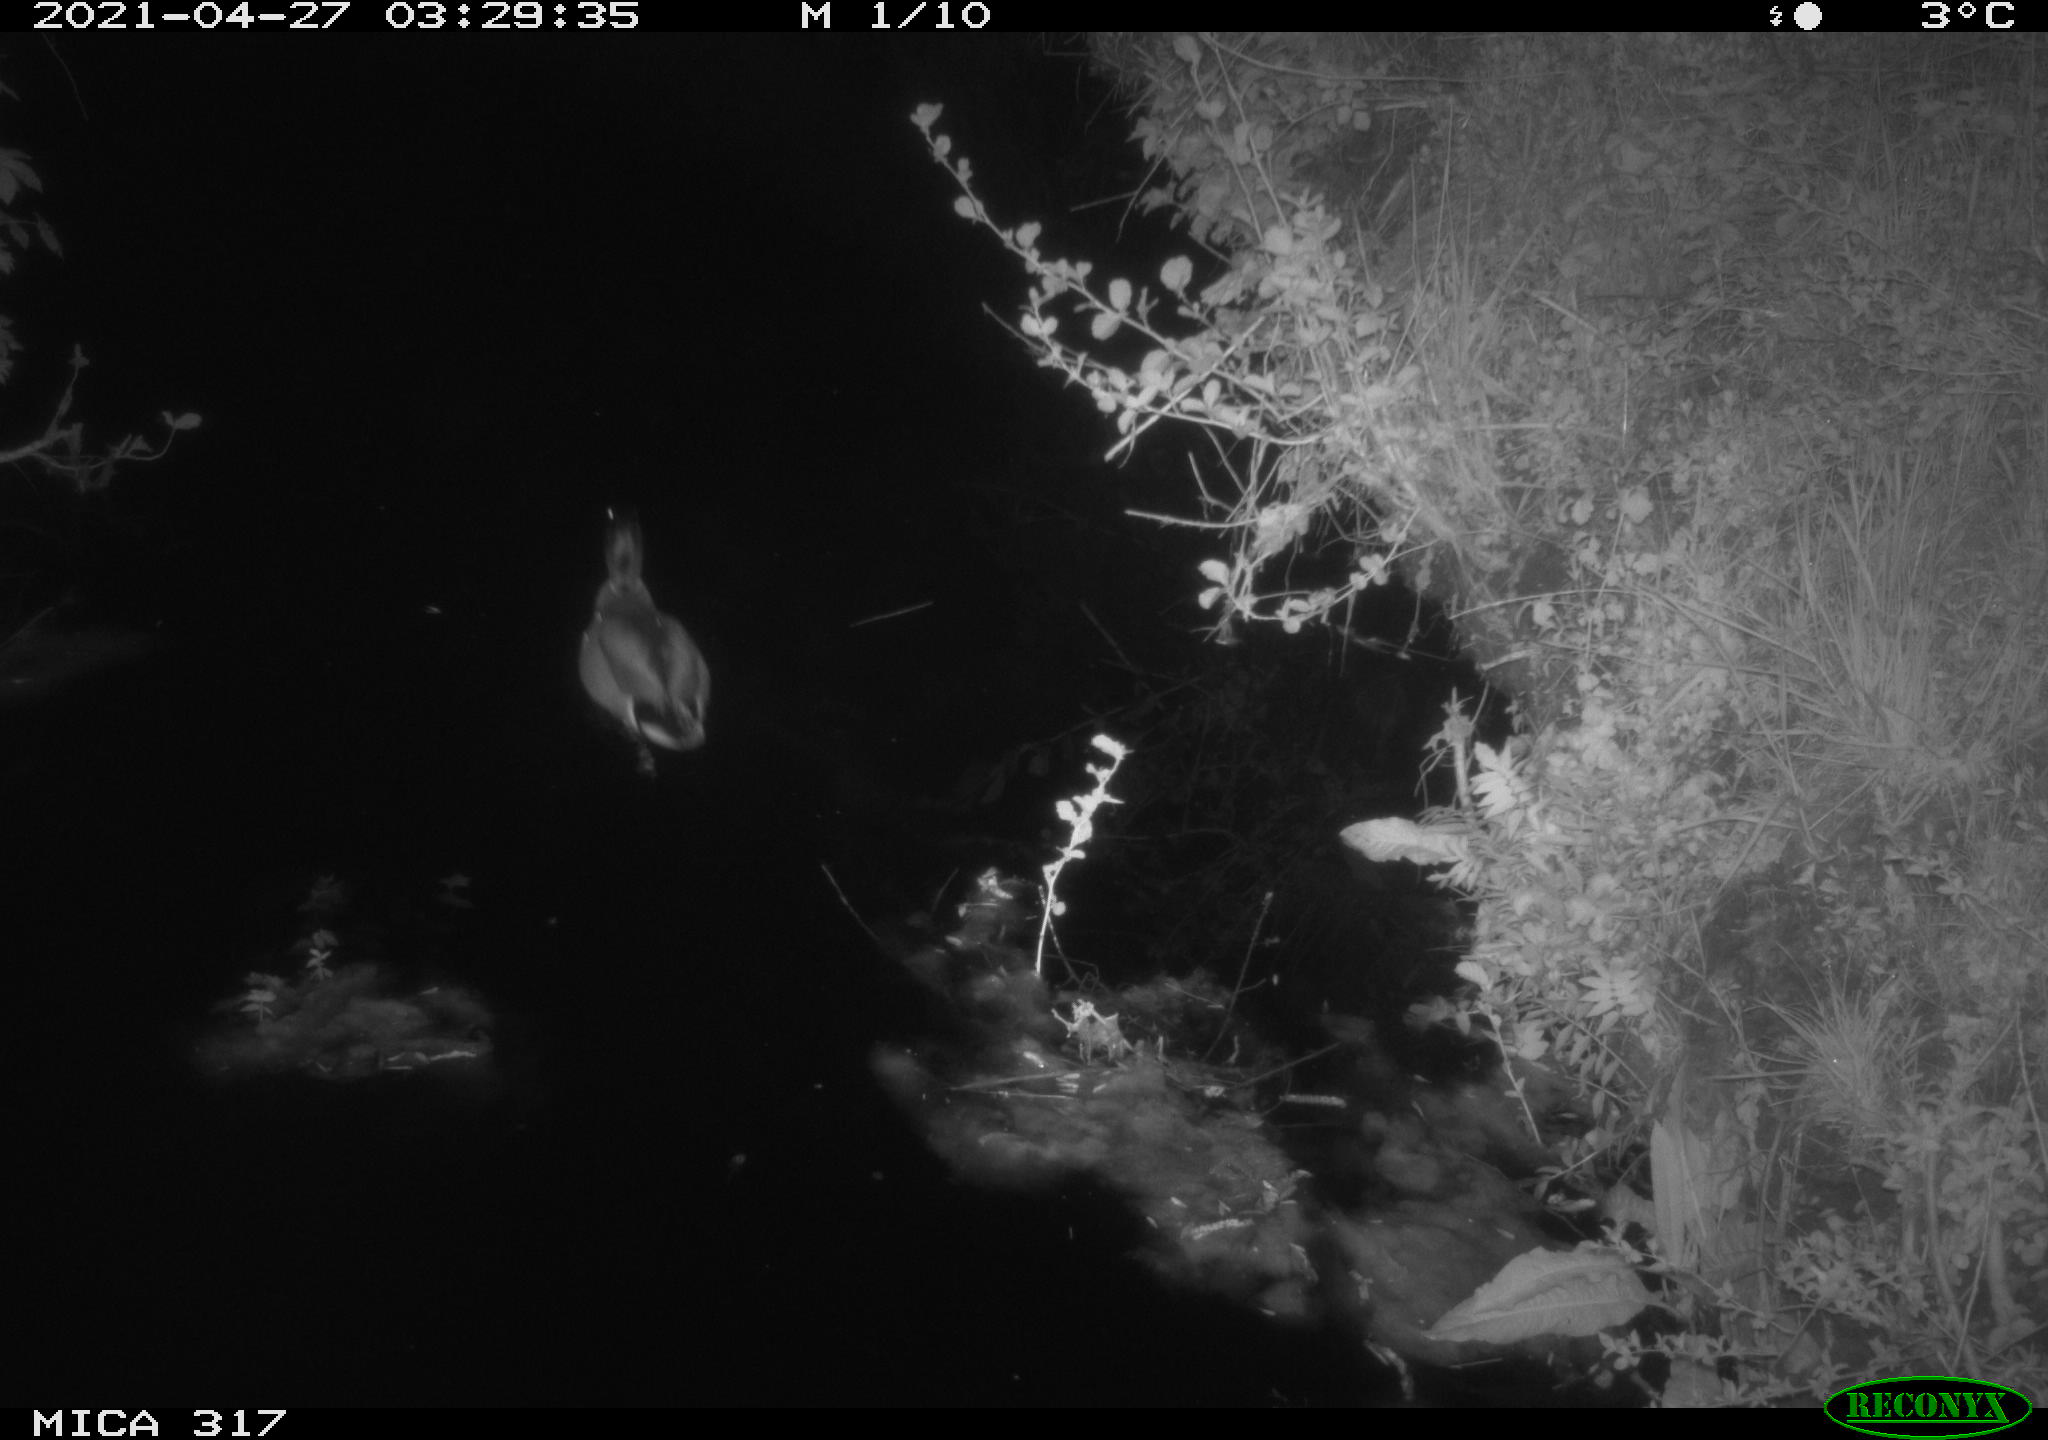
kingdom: Animalia
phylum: Chordata
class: Aves
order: Anseriformes
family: Anatidae
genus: Anas
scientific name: Anas
